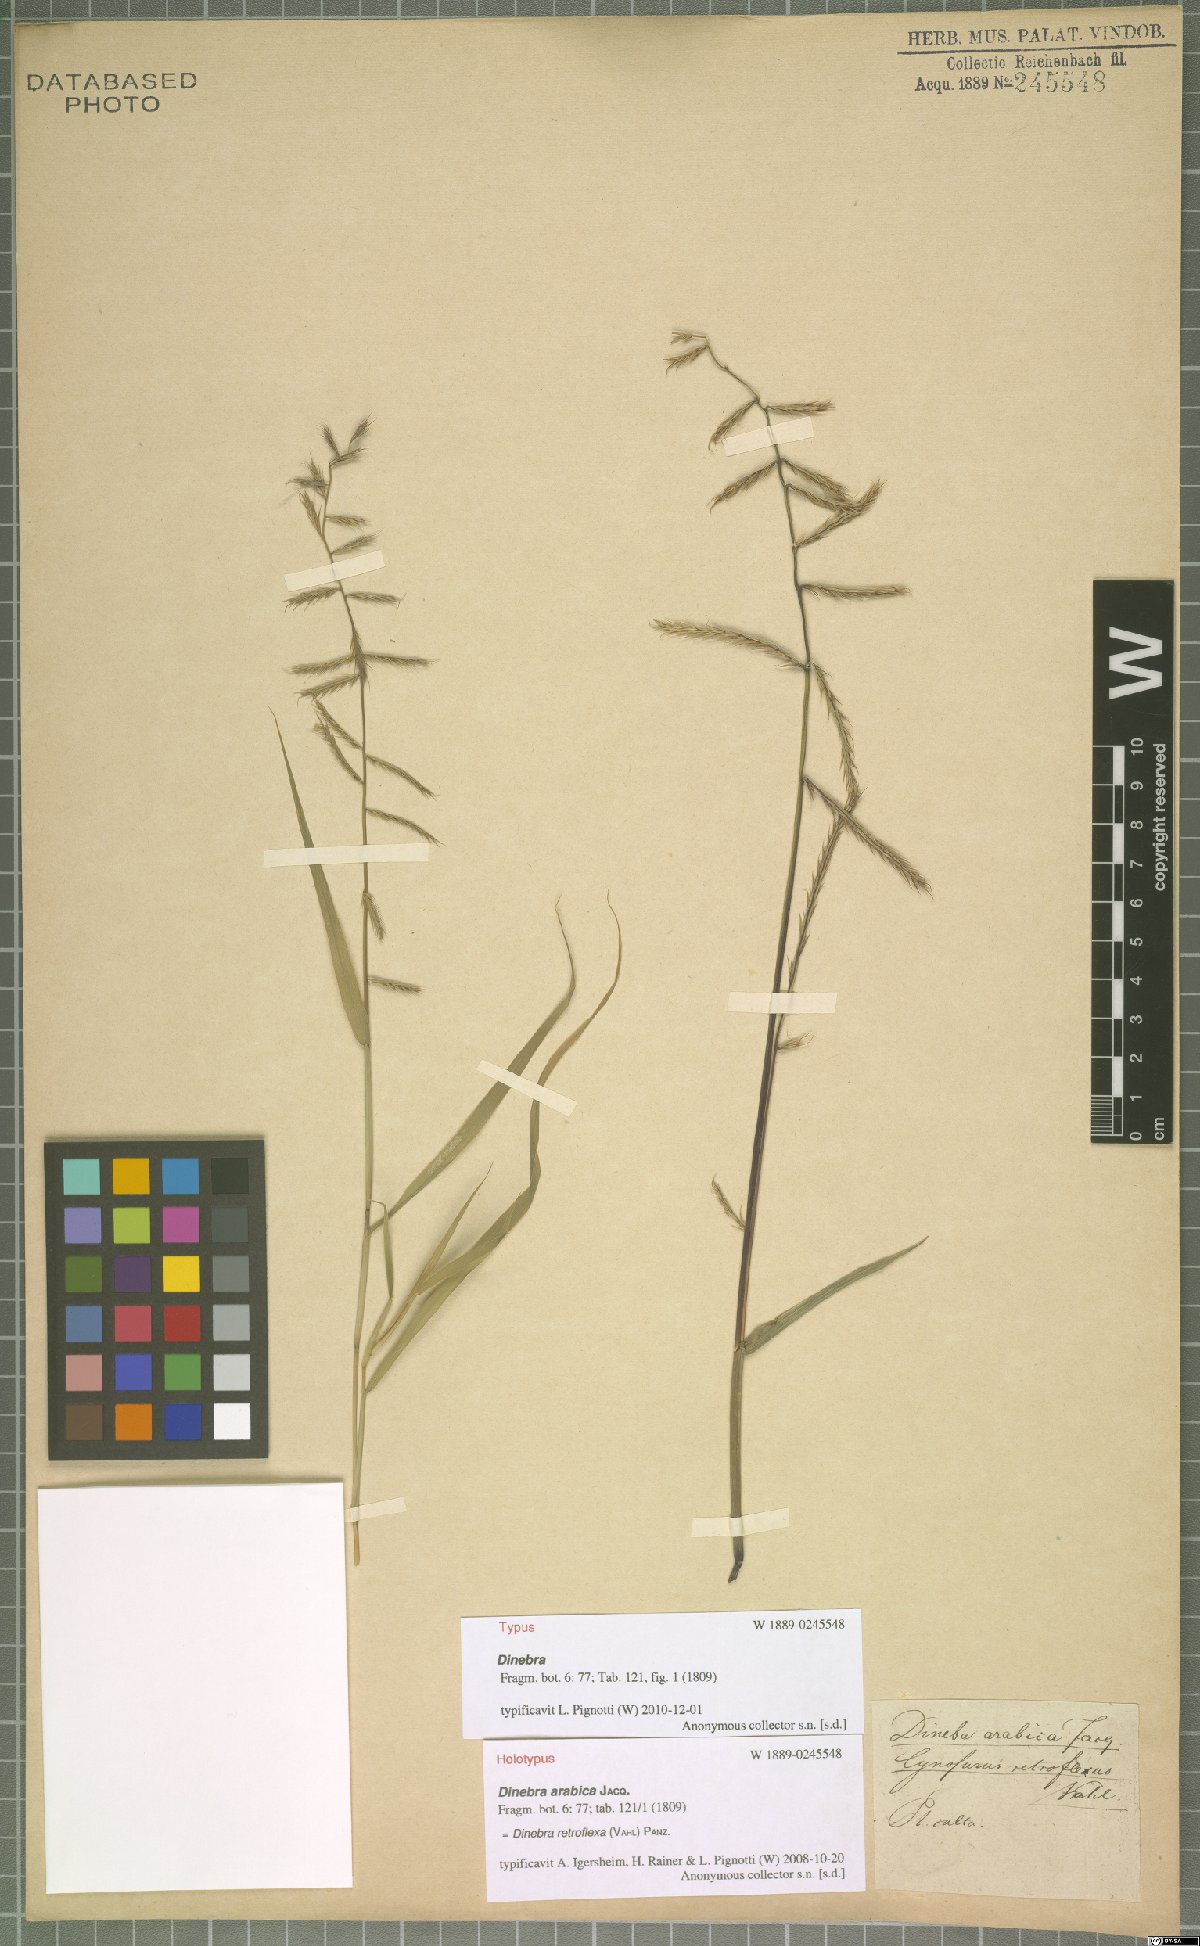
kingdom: Plantae
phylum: Tracheophyta
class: Liliopsida
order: Poales
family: Poaceae
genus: Dinebra
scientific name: Dinebra retroflexa
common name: Viper grass
